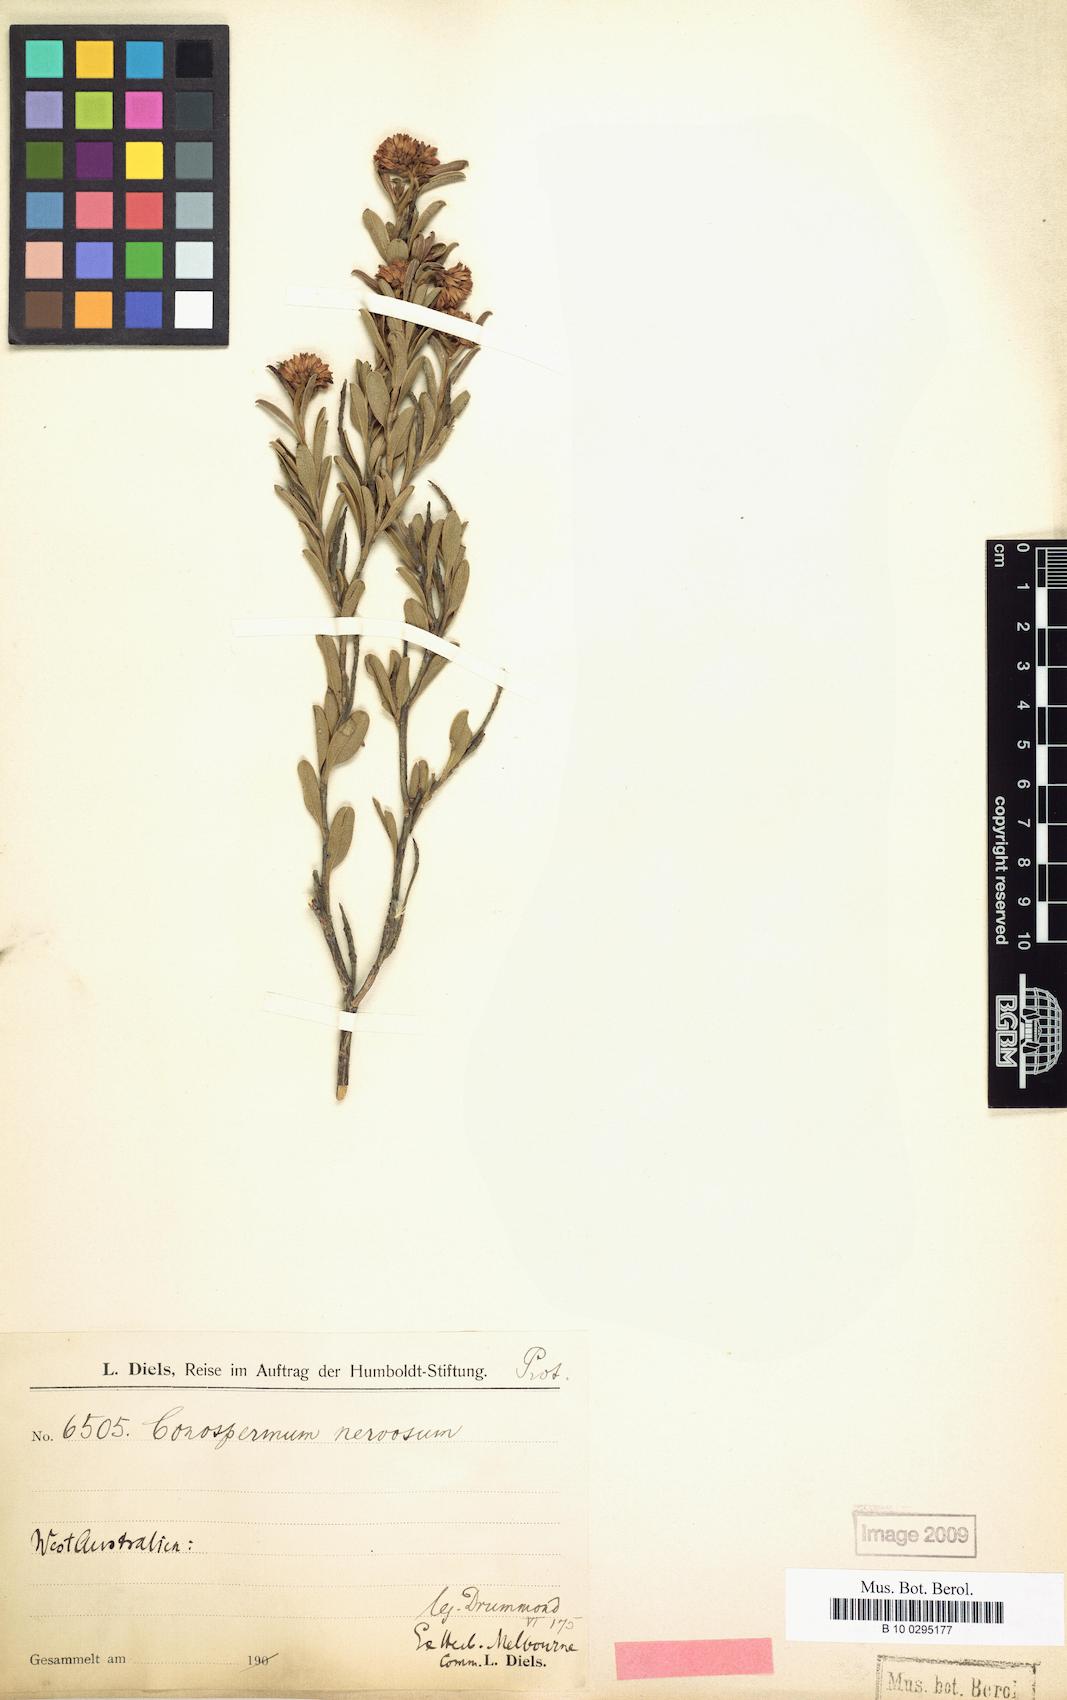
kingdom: Plantae
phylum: Tracheophyta
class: Magnoliopsida
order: Proteales
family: Proteaceae
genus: Conospermum
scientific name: Conospermum nervosum
